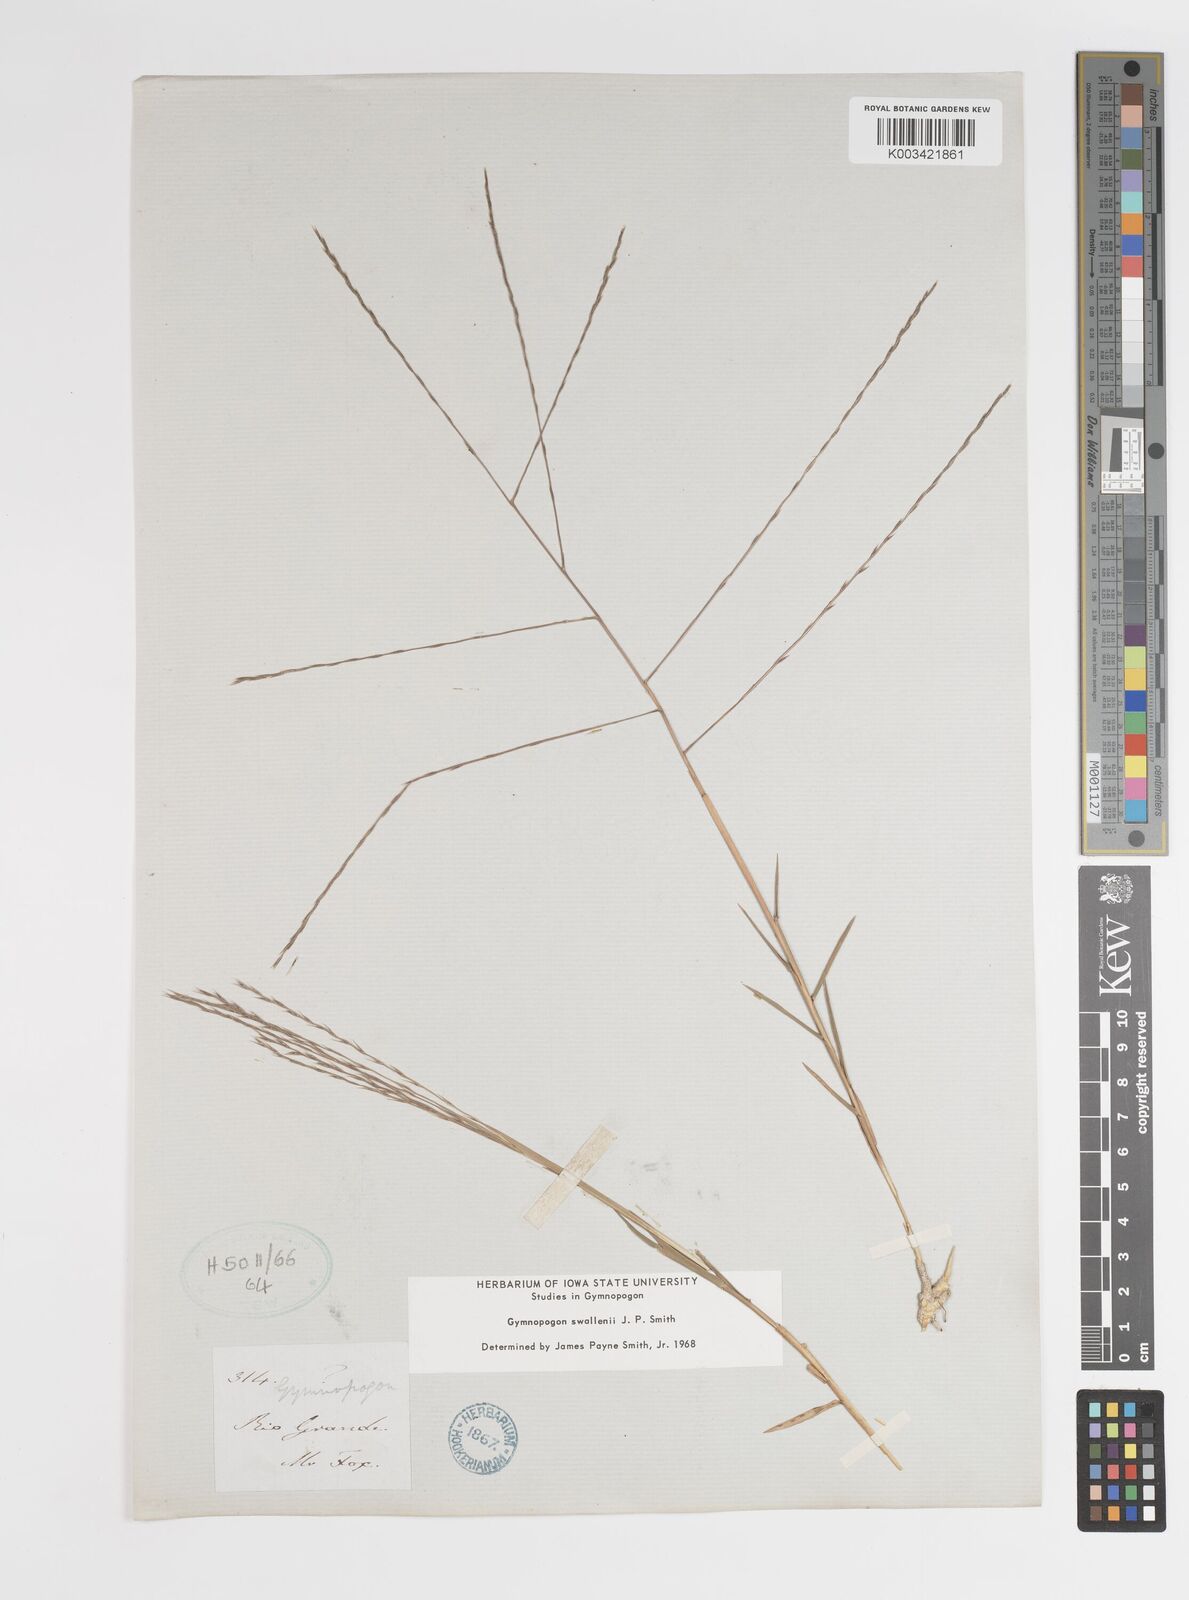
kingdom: Plantae
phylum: Tracheophyta
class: Liliopsida
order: Poales
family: Poaceae
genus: Gymnopogon
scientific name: Gymnopogon legrandii
